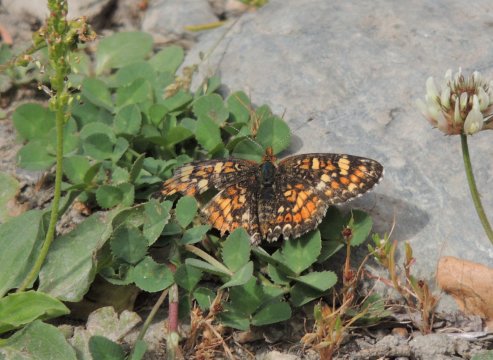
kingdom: Animalia
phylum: Arthropoda
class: Insecta
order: Lepidoptera
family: Nymphalidae
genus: Phyciodes
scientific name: Phyciodes tharos
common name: Field Crescent
